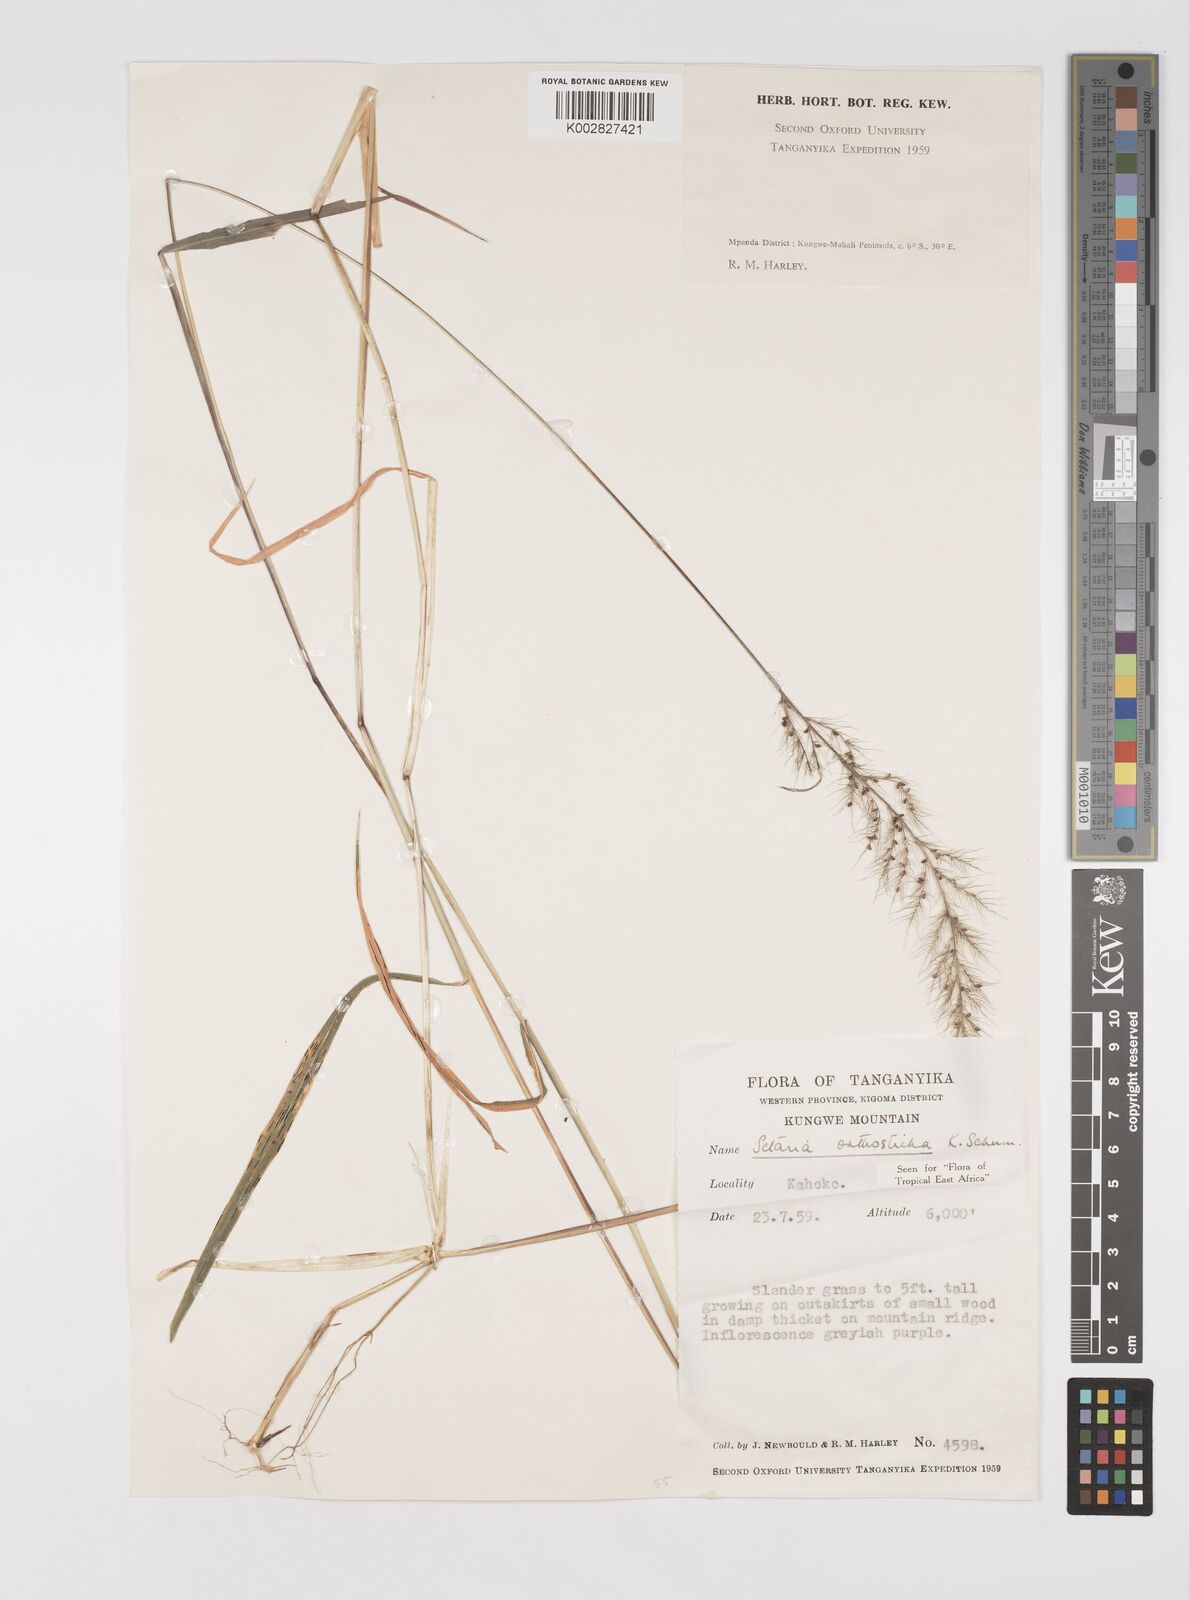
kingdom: Plantae
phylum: Tracheophyta
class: Liliopsida
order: Poales
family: Poaceae
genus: Setaria
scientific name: Setaria orthosticha
